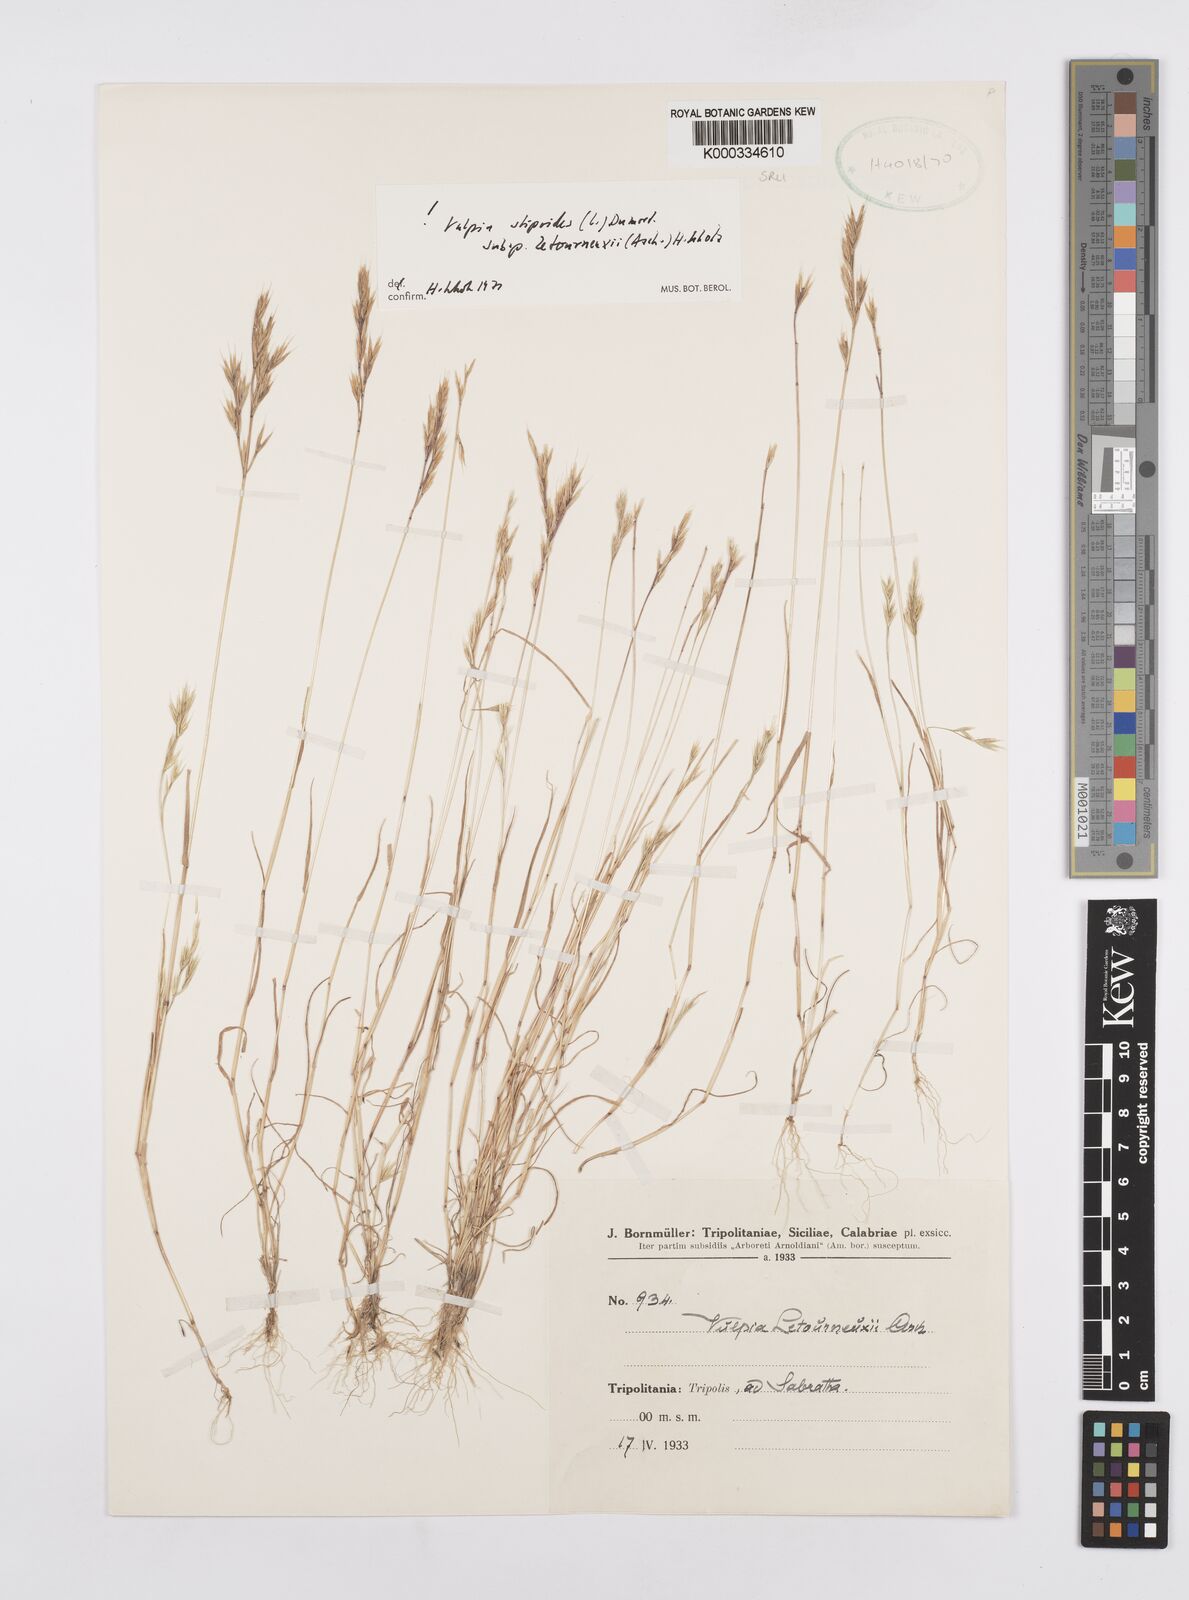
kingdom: Plantae
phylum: Tracheophyta
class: Liliopsida
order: Poales
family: Poaceae
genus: Vulpiella
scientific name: Vulpiella stipoides
